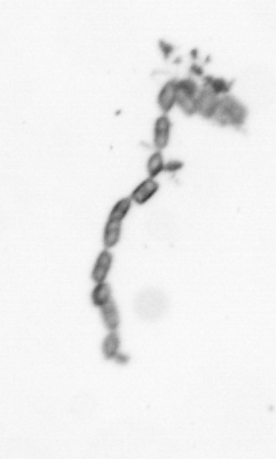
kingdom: Chromista
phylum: Ochrophyta
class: Bacillariophyceae
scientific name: Bacillariophyceae
